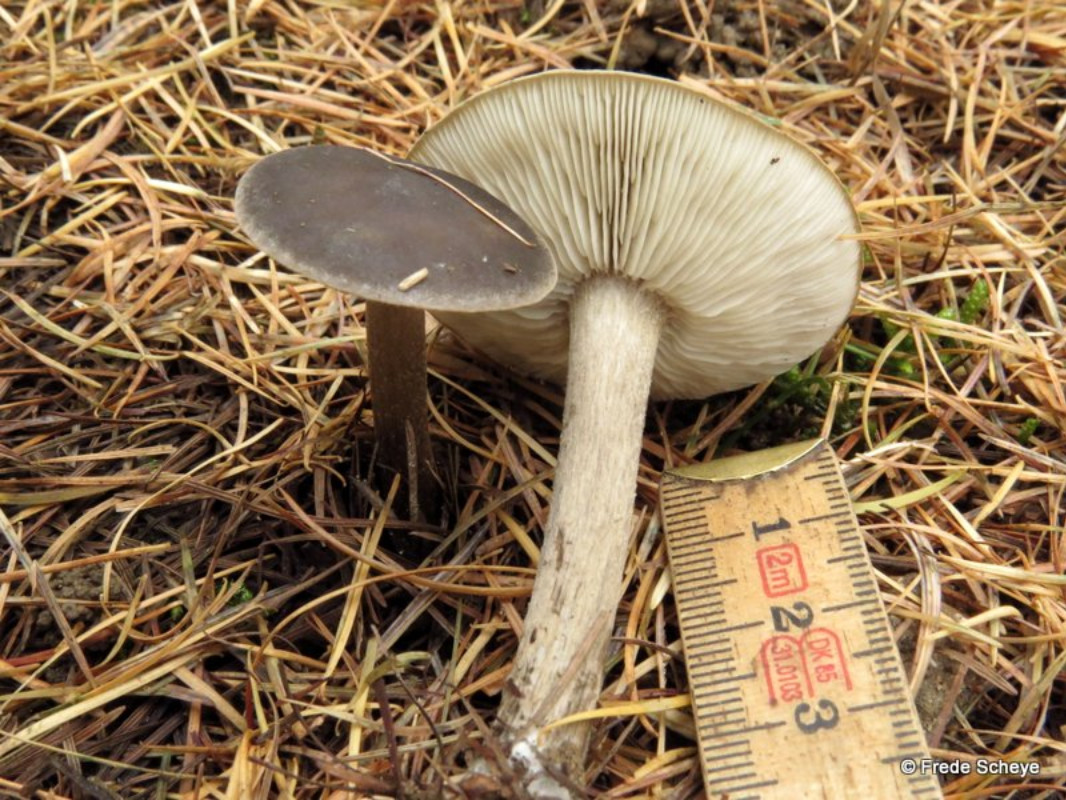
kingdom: Fungi
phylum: Basidiomycota
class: Agaricomycetes
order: Agaricales
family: Tricholomataceae
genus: Melanoleuca
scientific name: Melanoleuca polioleuca
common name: almindelig munkehat
